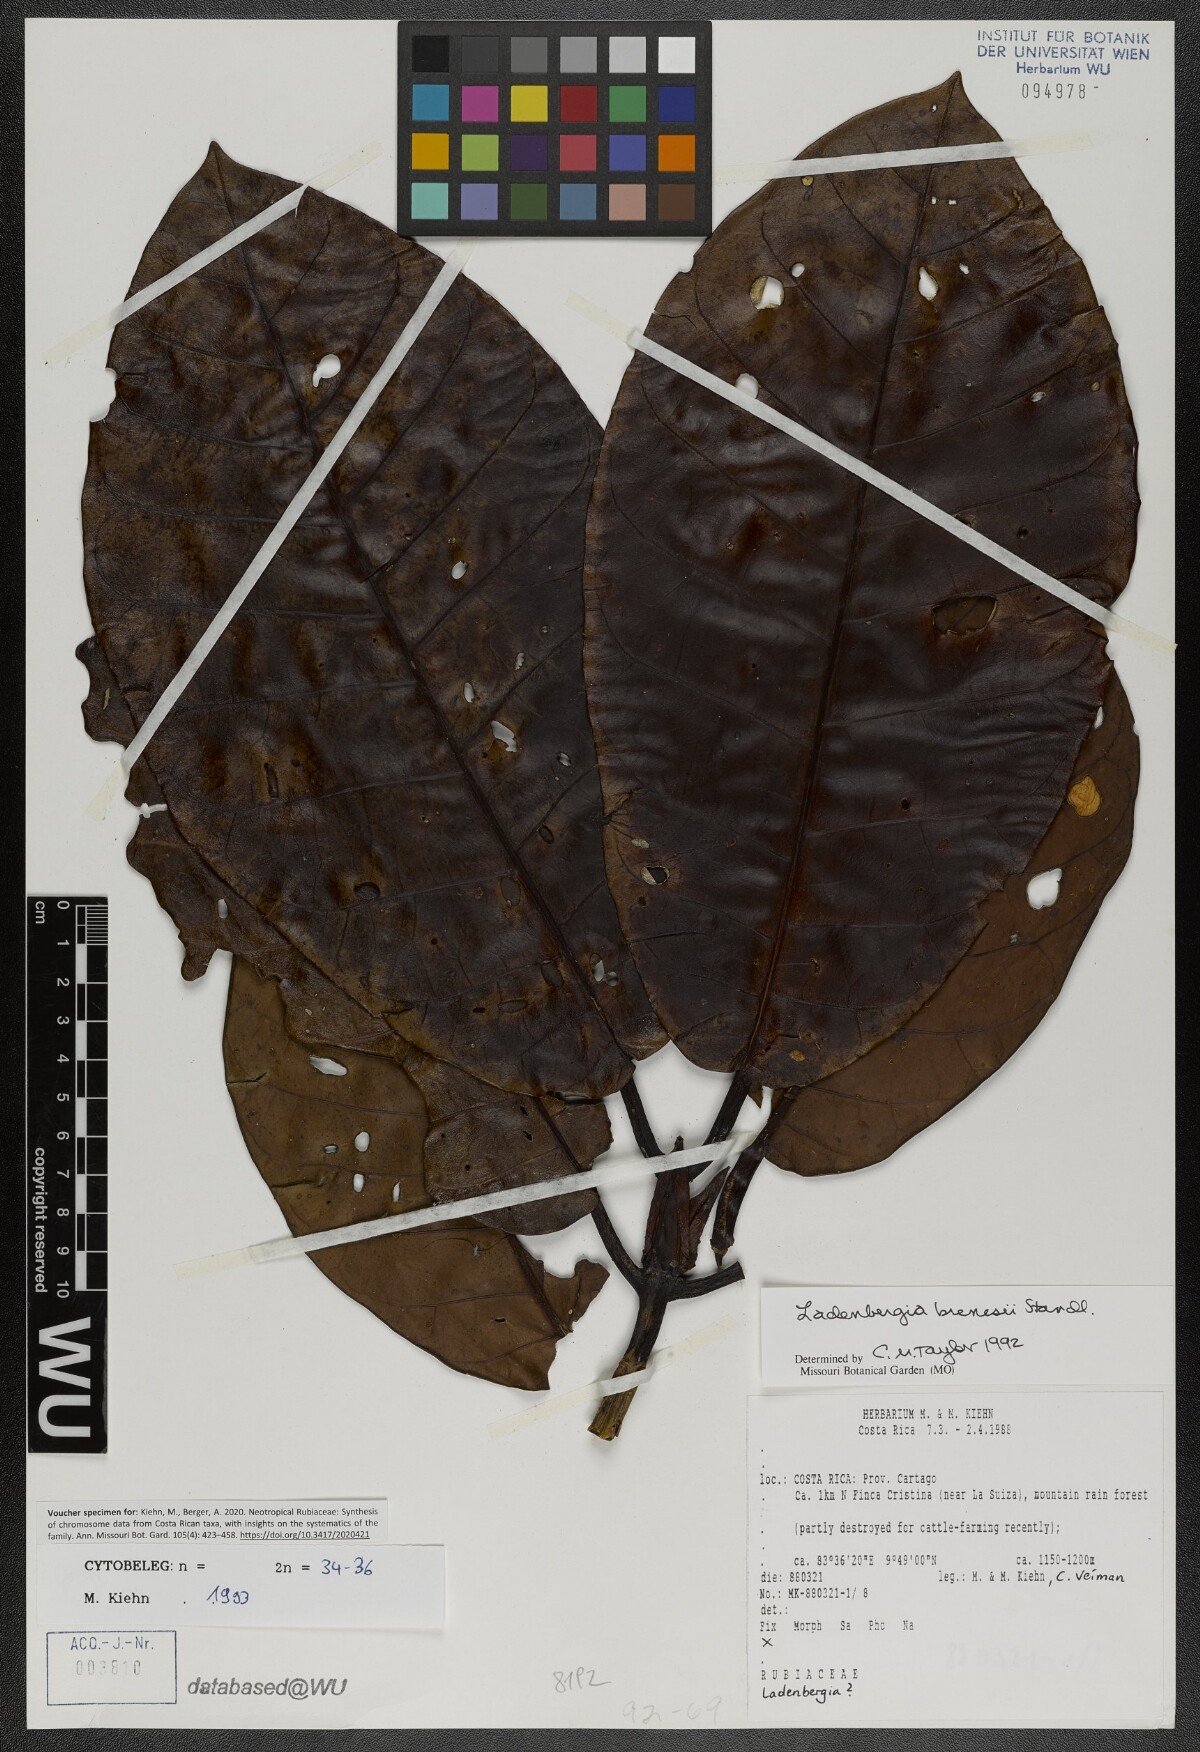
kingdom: Plantae
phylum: Tracheophyta
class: Magnoliopsida
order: Gentianales
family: Rubiaceae
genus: Ladenbergia
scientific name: Ladenbergia brenesii
